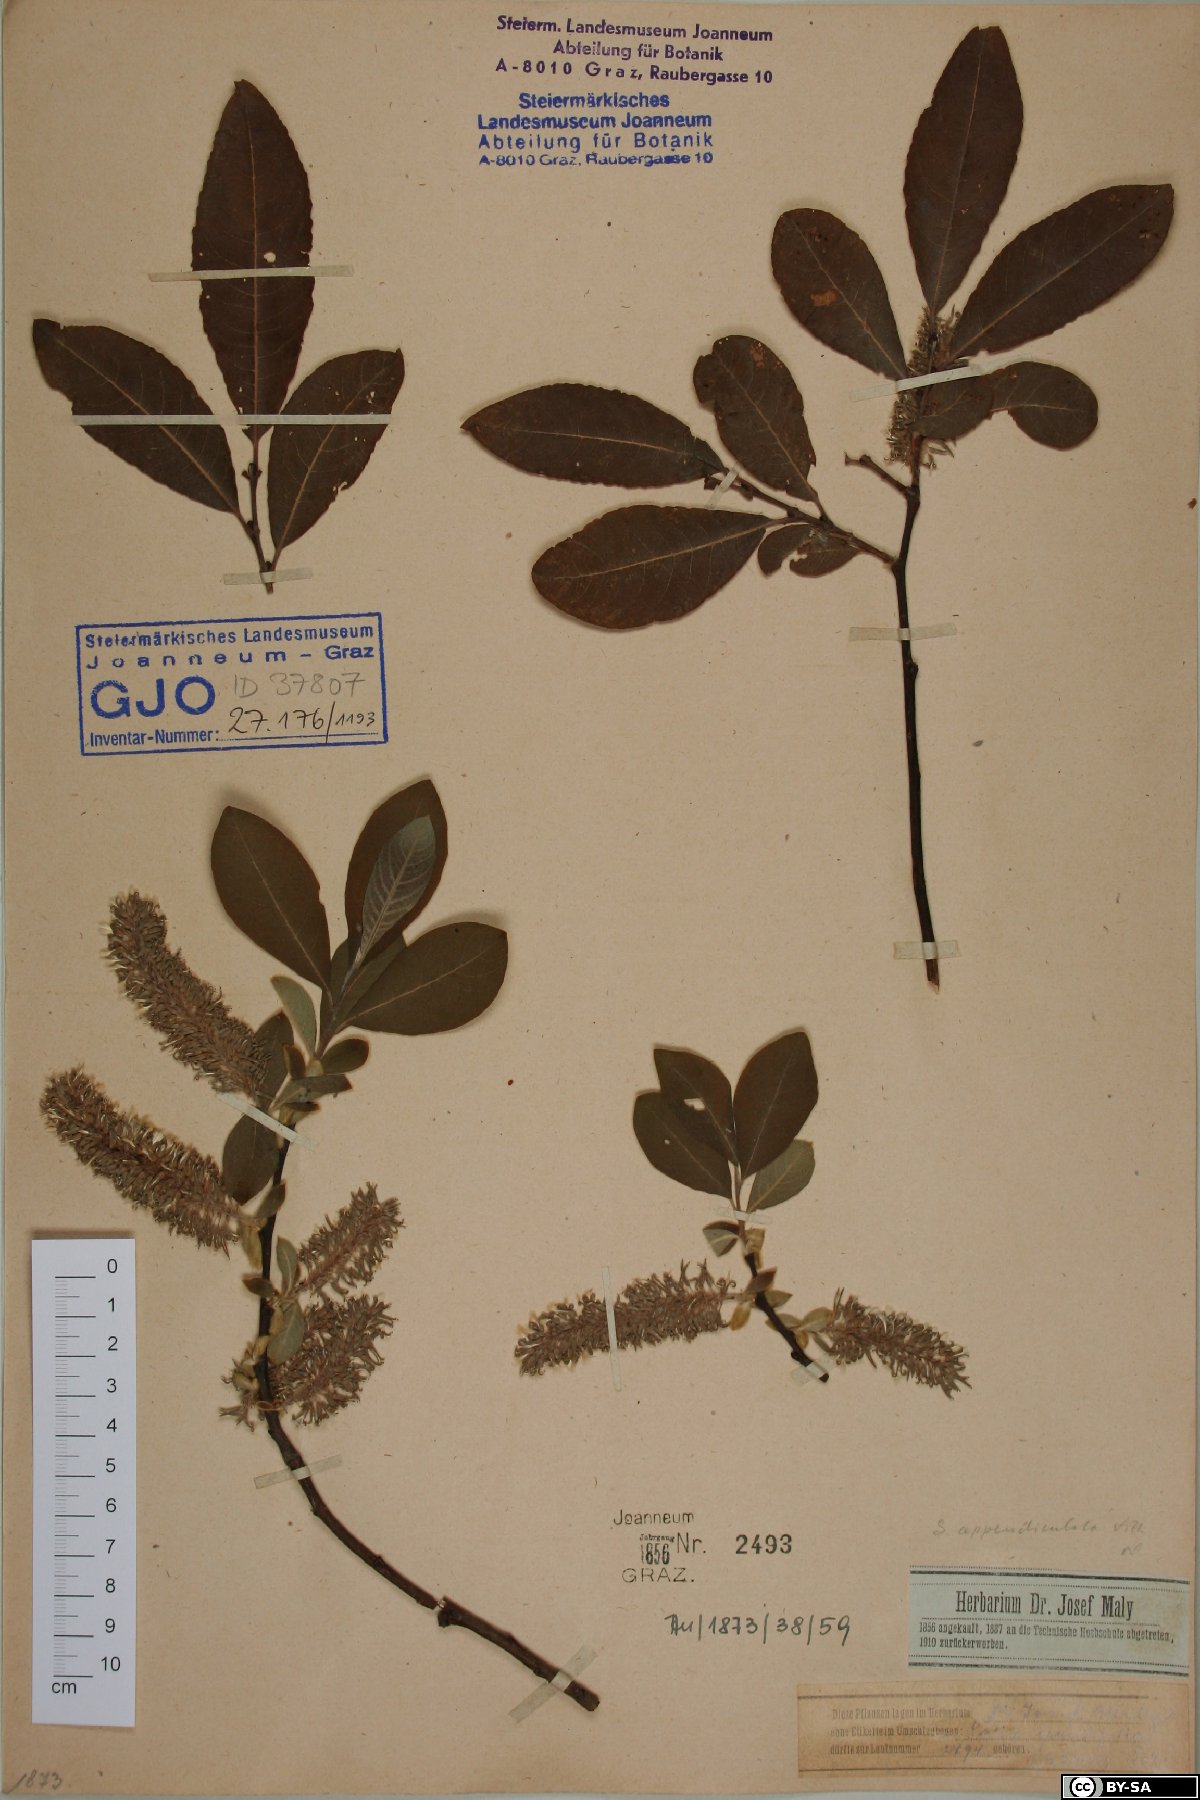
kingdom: Plantae
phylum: Tracheophyta
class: Magnoliopsida
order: Malpighiales
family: Salicaceae
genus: Salix
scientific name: Salix appendiculata
